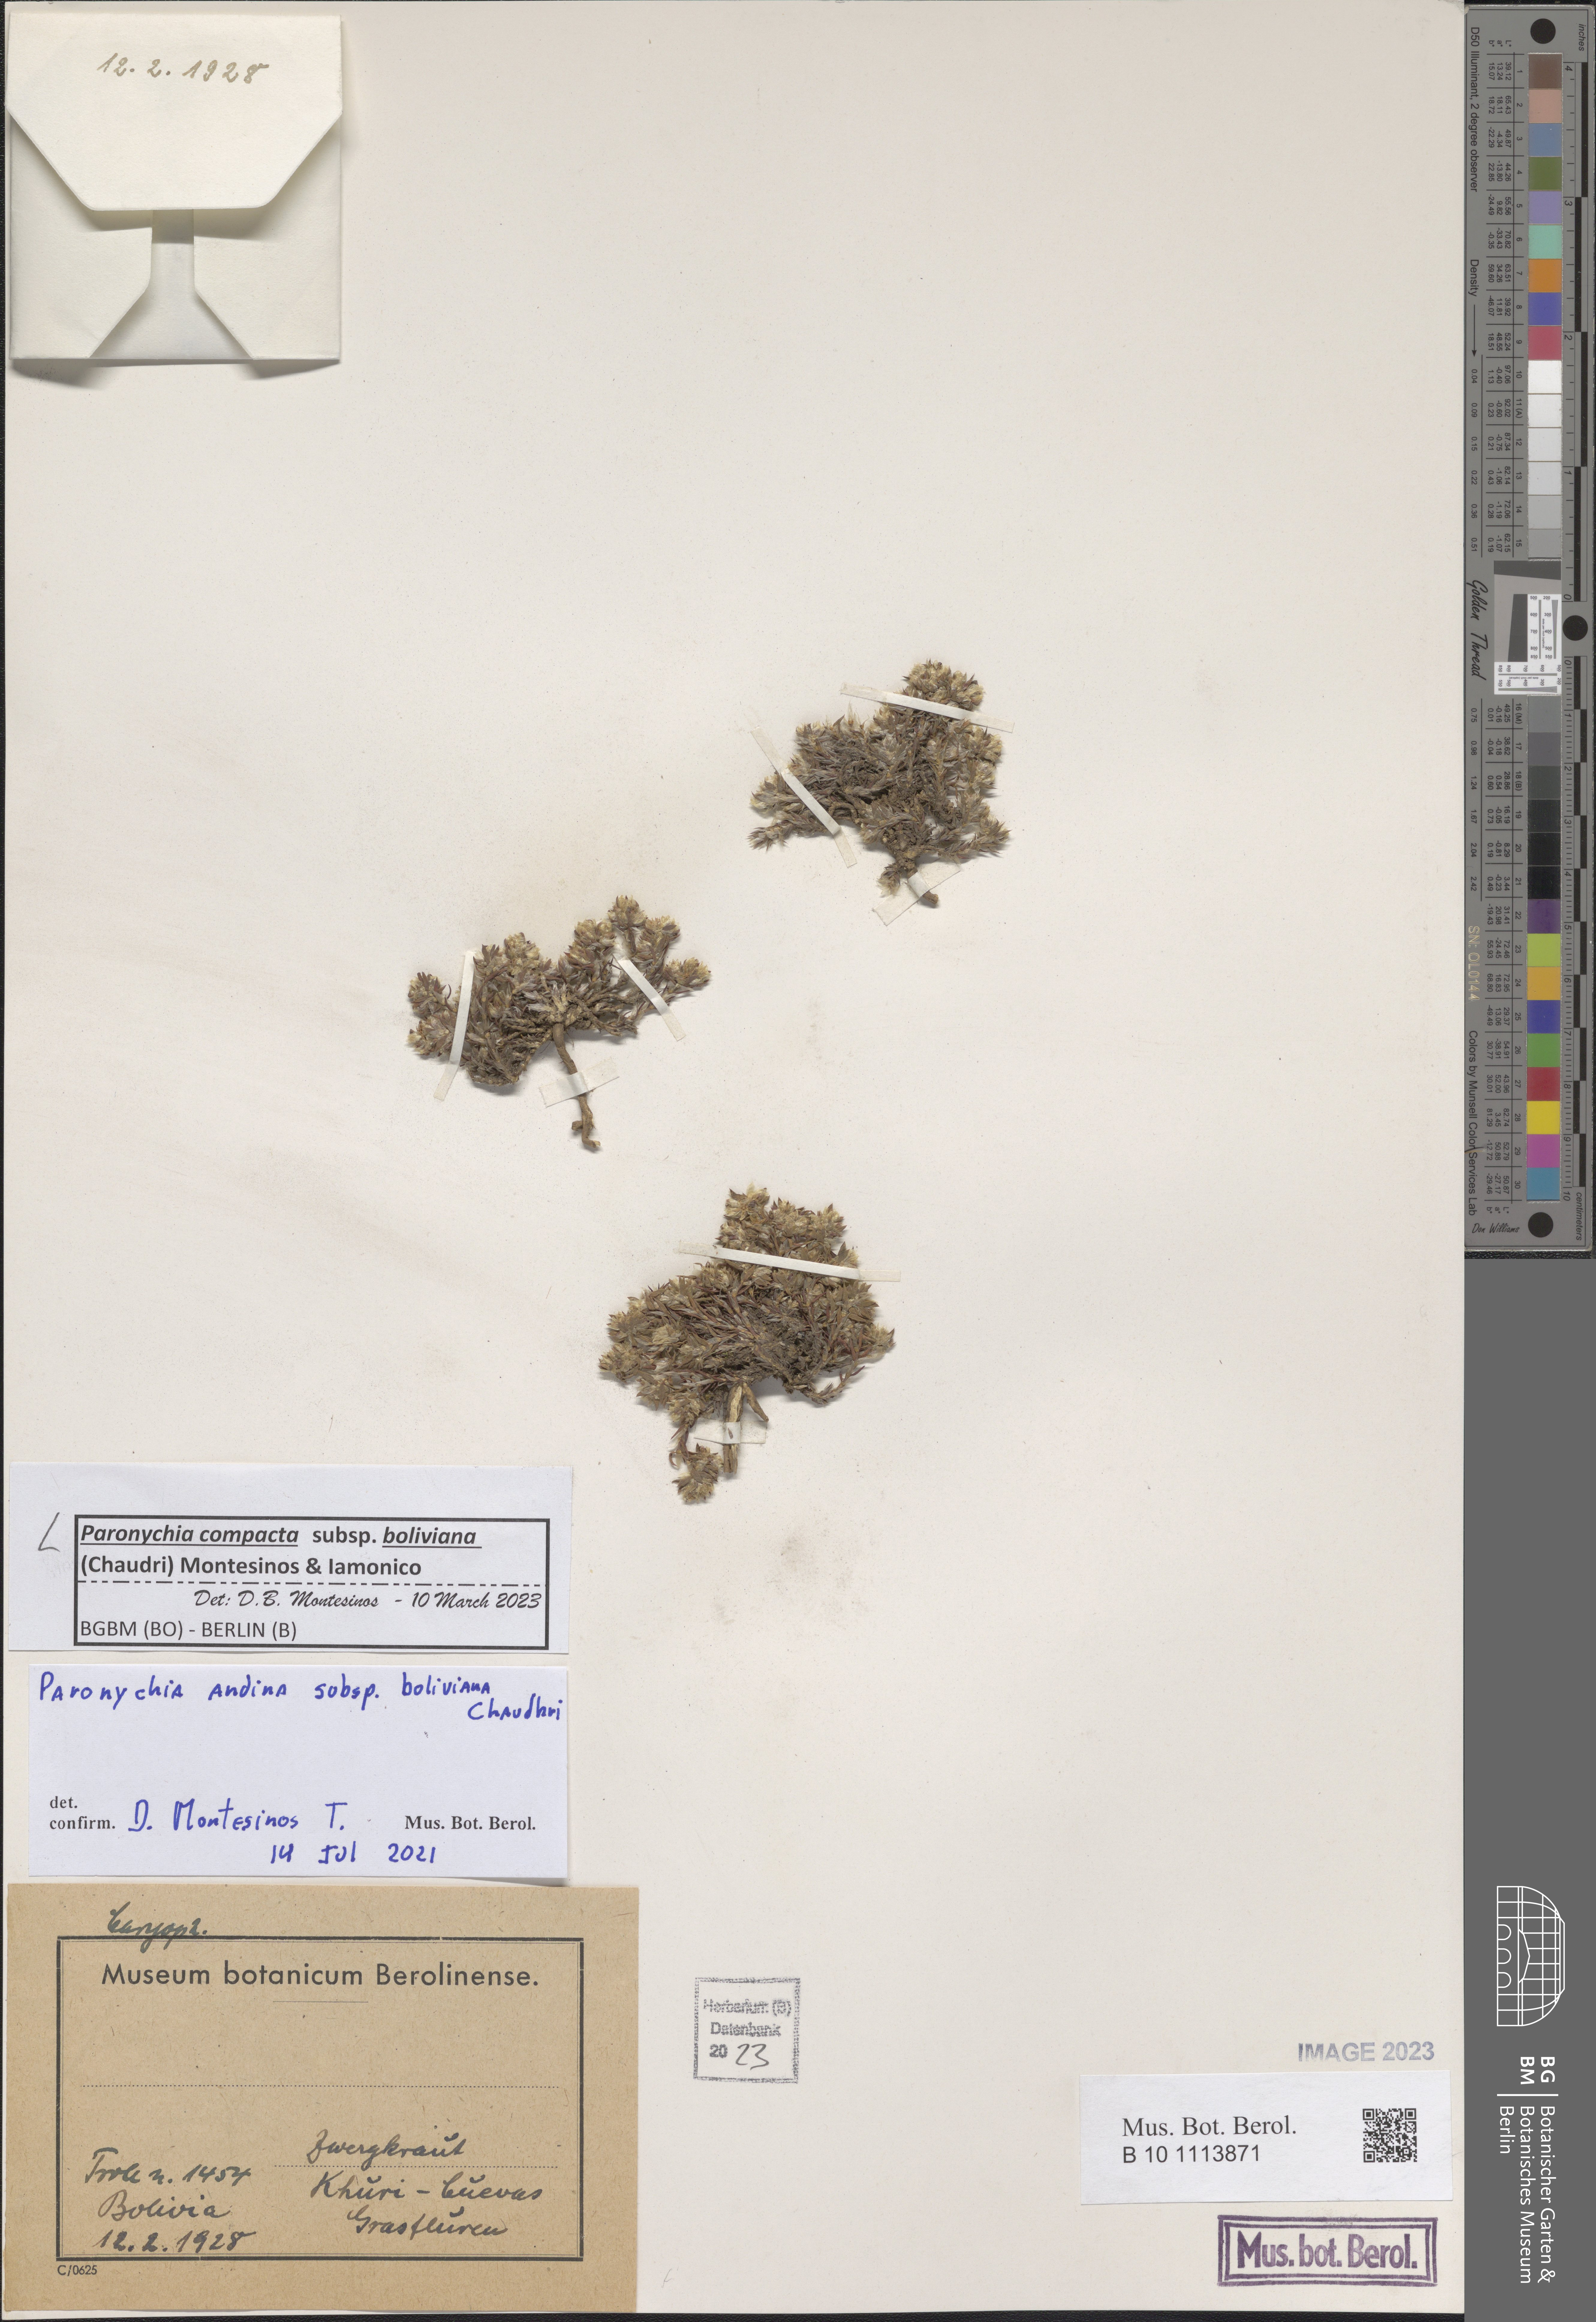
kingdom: Plantae
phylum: Tracheophyta
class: Magnoliopsida
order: Caryophyllales
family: Caryophyllaceae
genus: Paronychia
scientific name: Paronychia
